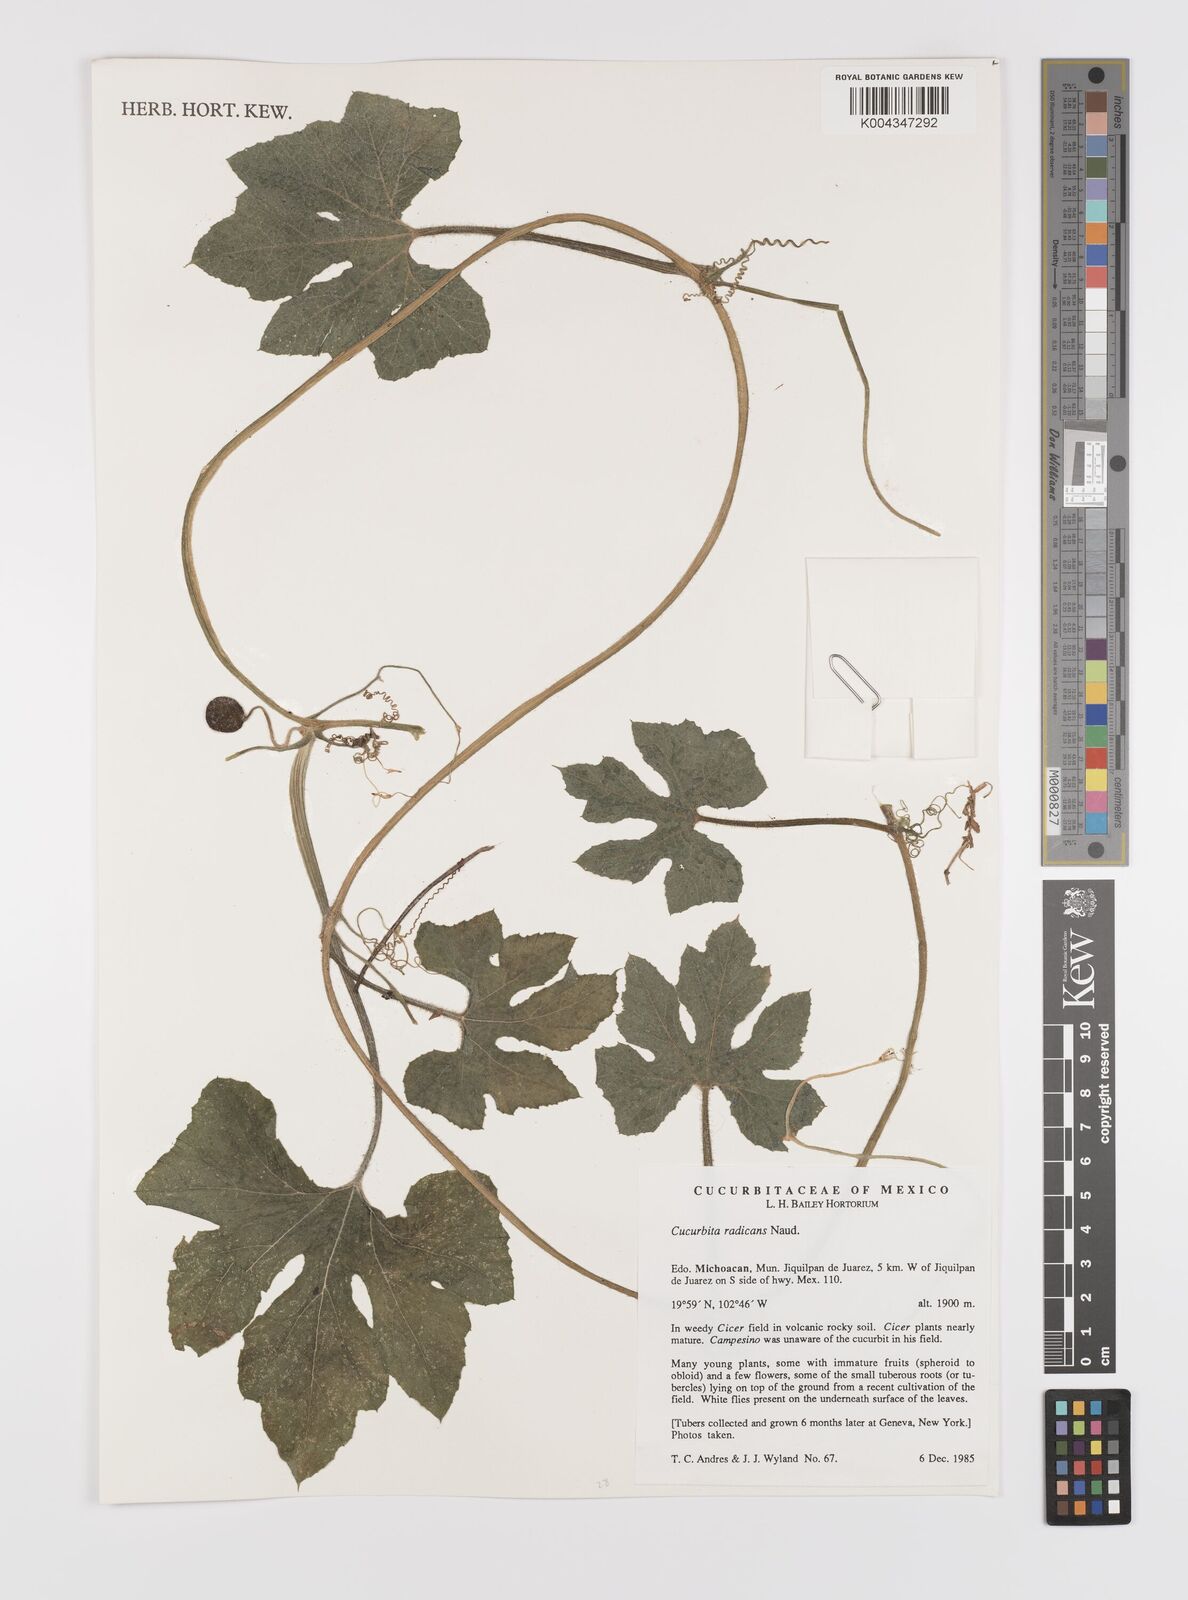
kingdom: Plantae
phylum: Tracheophyta
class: Magnoliopsida
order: Cucurbitales
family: Cucurbitaceae
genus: Cucurbita
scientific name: Cucurbita radicans
